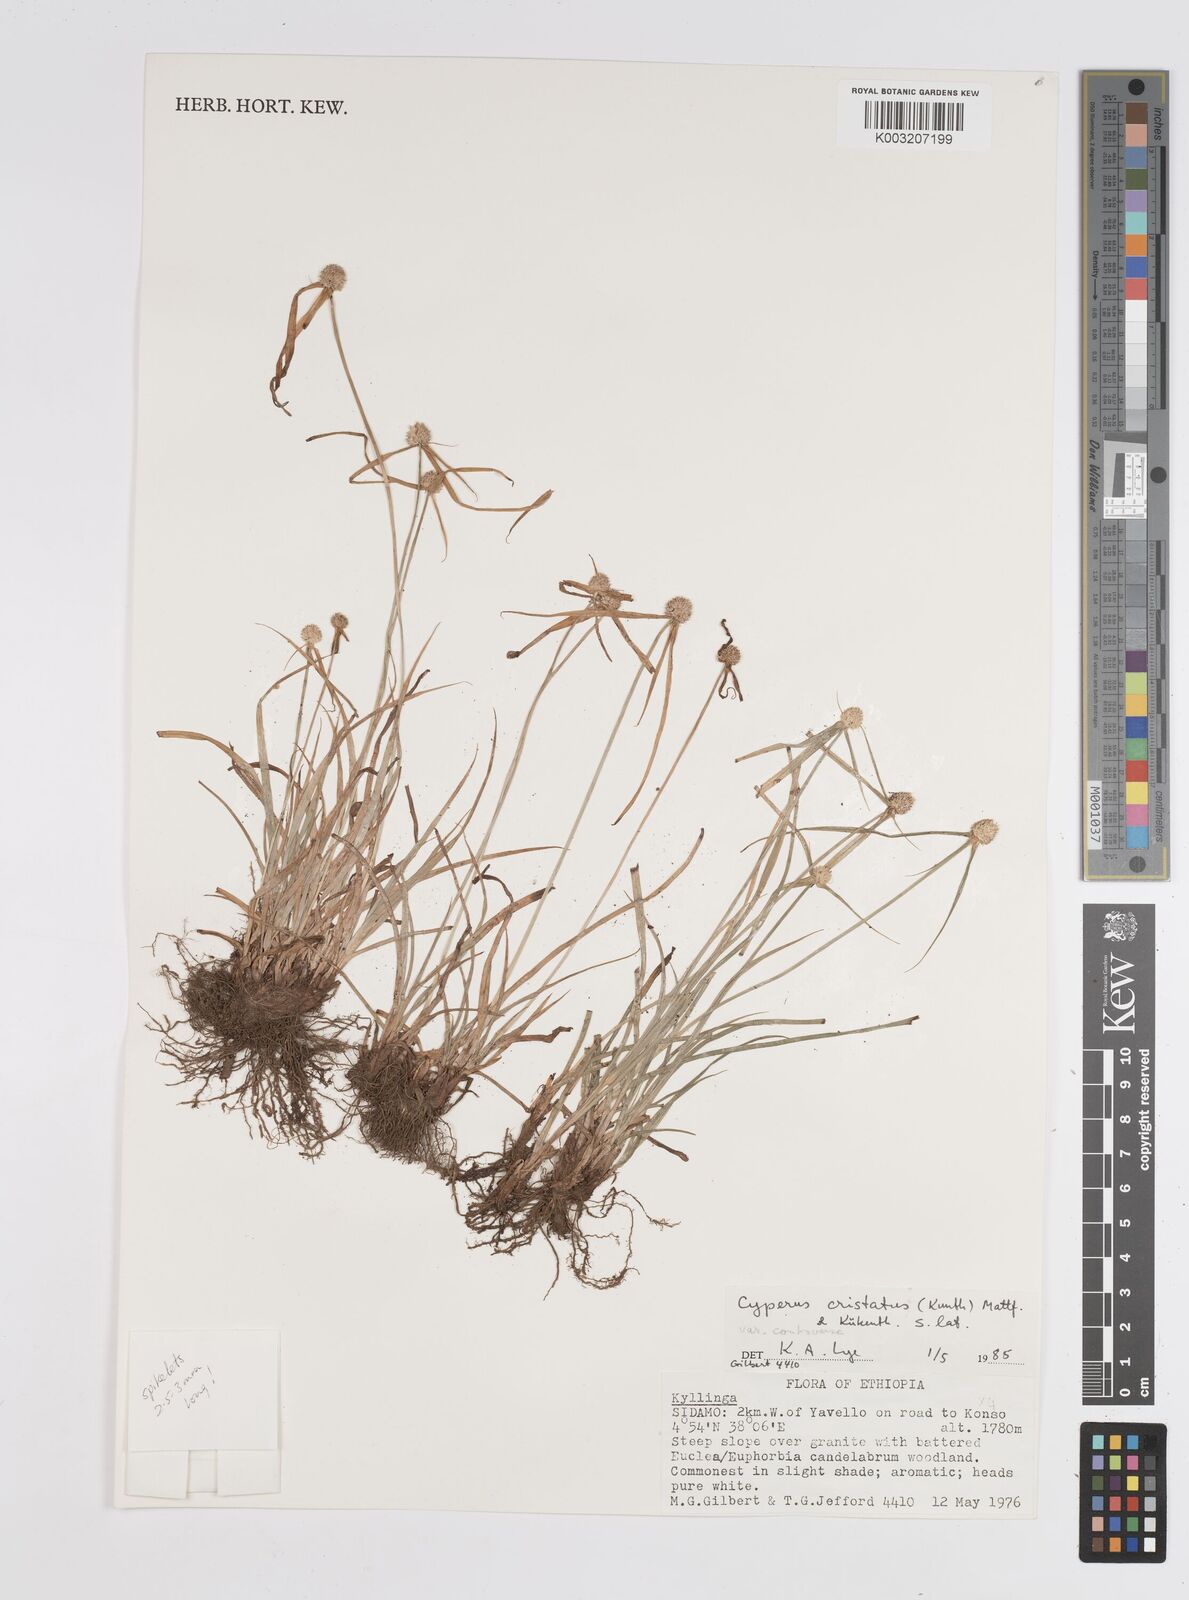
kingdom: Plantae
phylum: Tracheophyta
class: Liliopsida
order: Poales
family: Cyperaceae
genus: Cyperus
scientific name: Cyperus controversus
